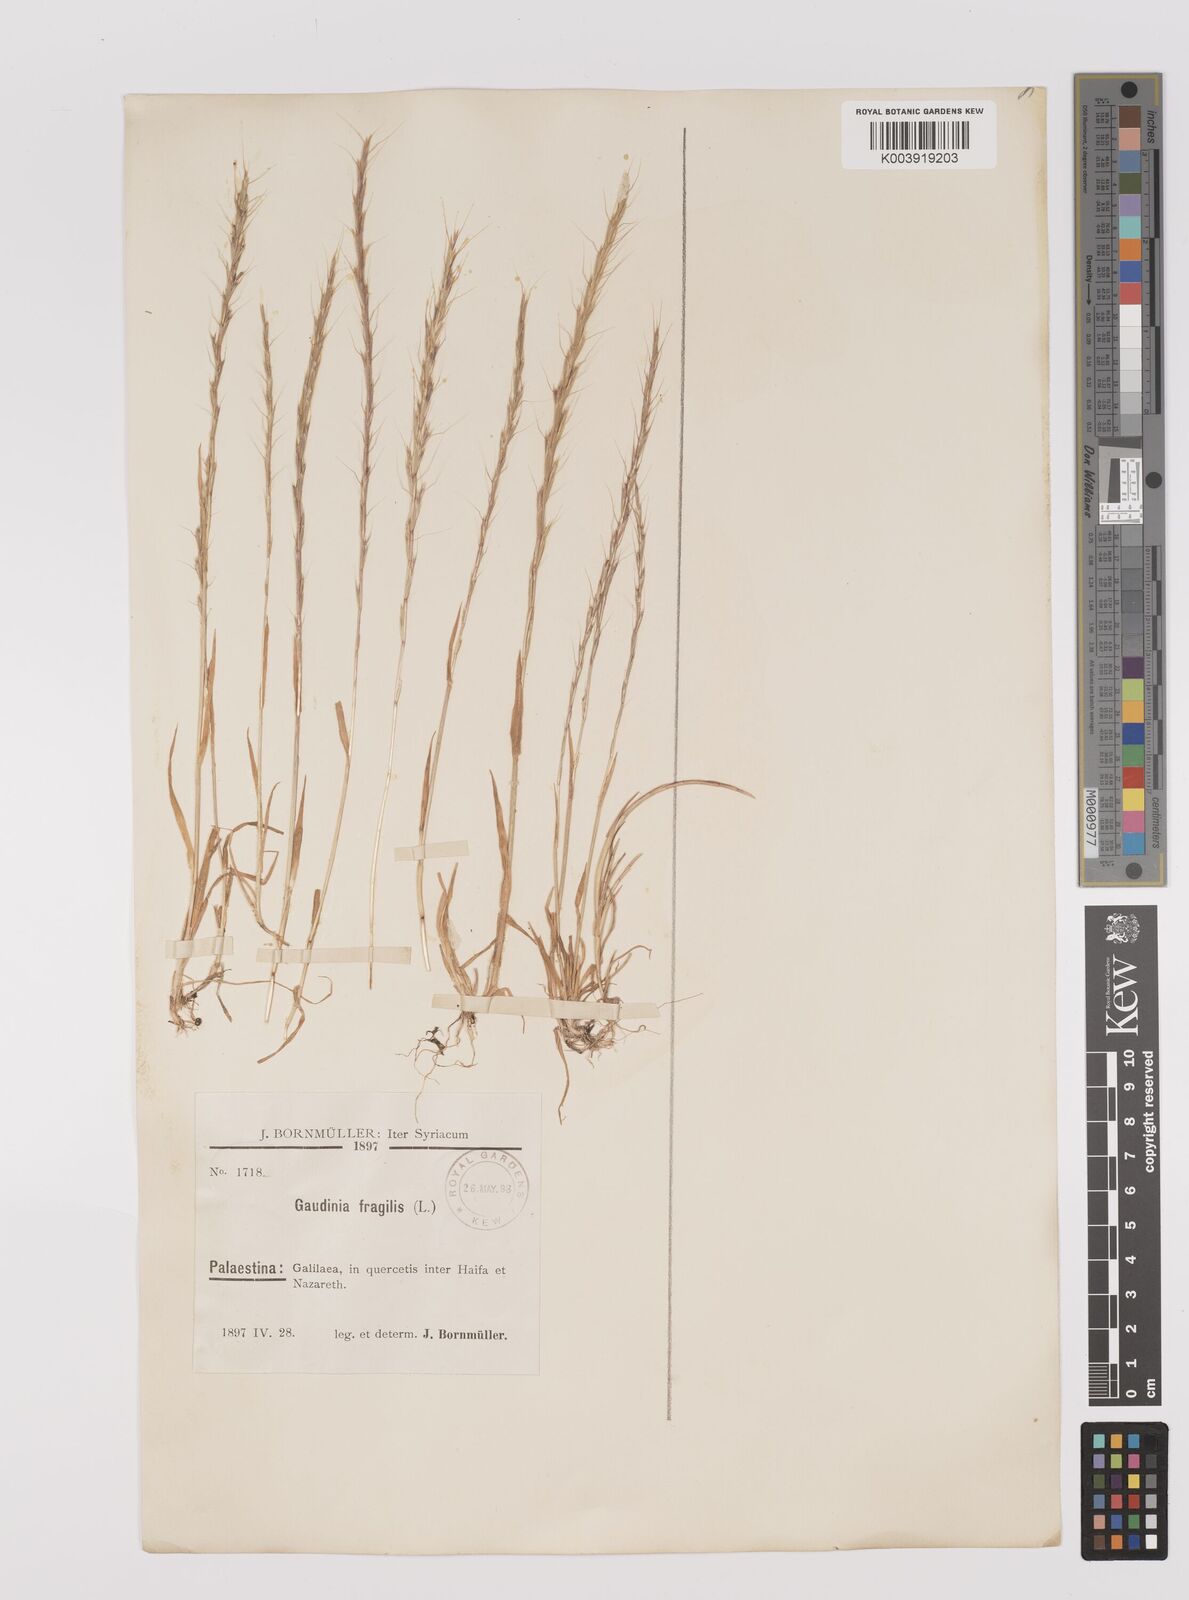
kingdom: Plantae
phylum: Tracheophyta
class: Liliopsida
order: Poales
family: Poaceae
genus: Gaudinia
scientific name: Gaudinia fragilis
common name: French oat-grass
